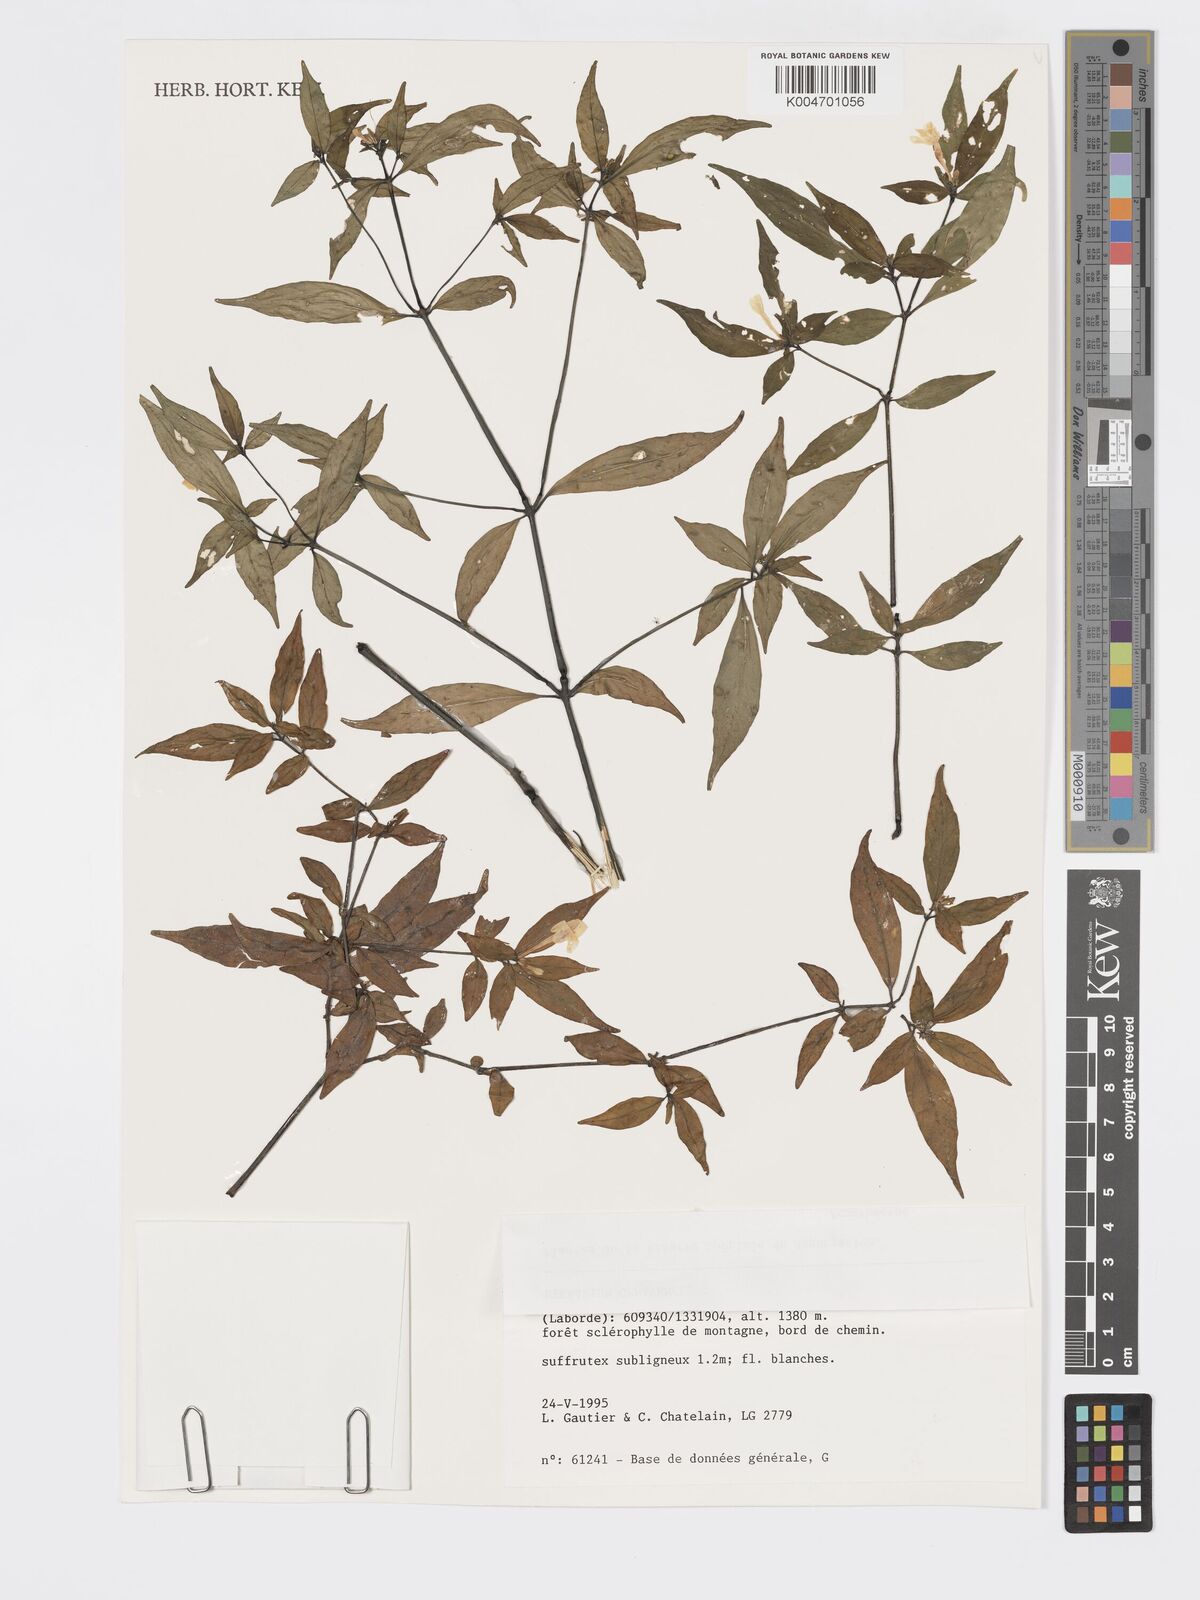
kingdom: Plantae
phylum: Tracheophyta
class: Magnoliopsida
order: Lamiales
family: Acanthaceae
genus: Hypoestes
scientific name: Hypoestes
